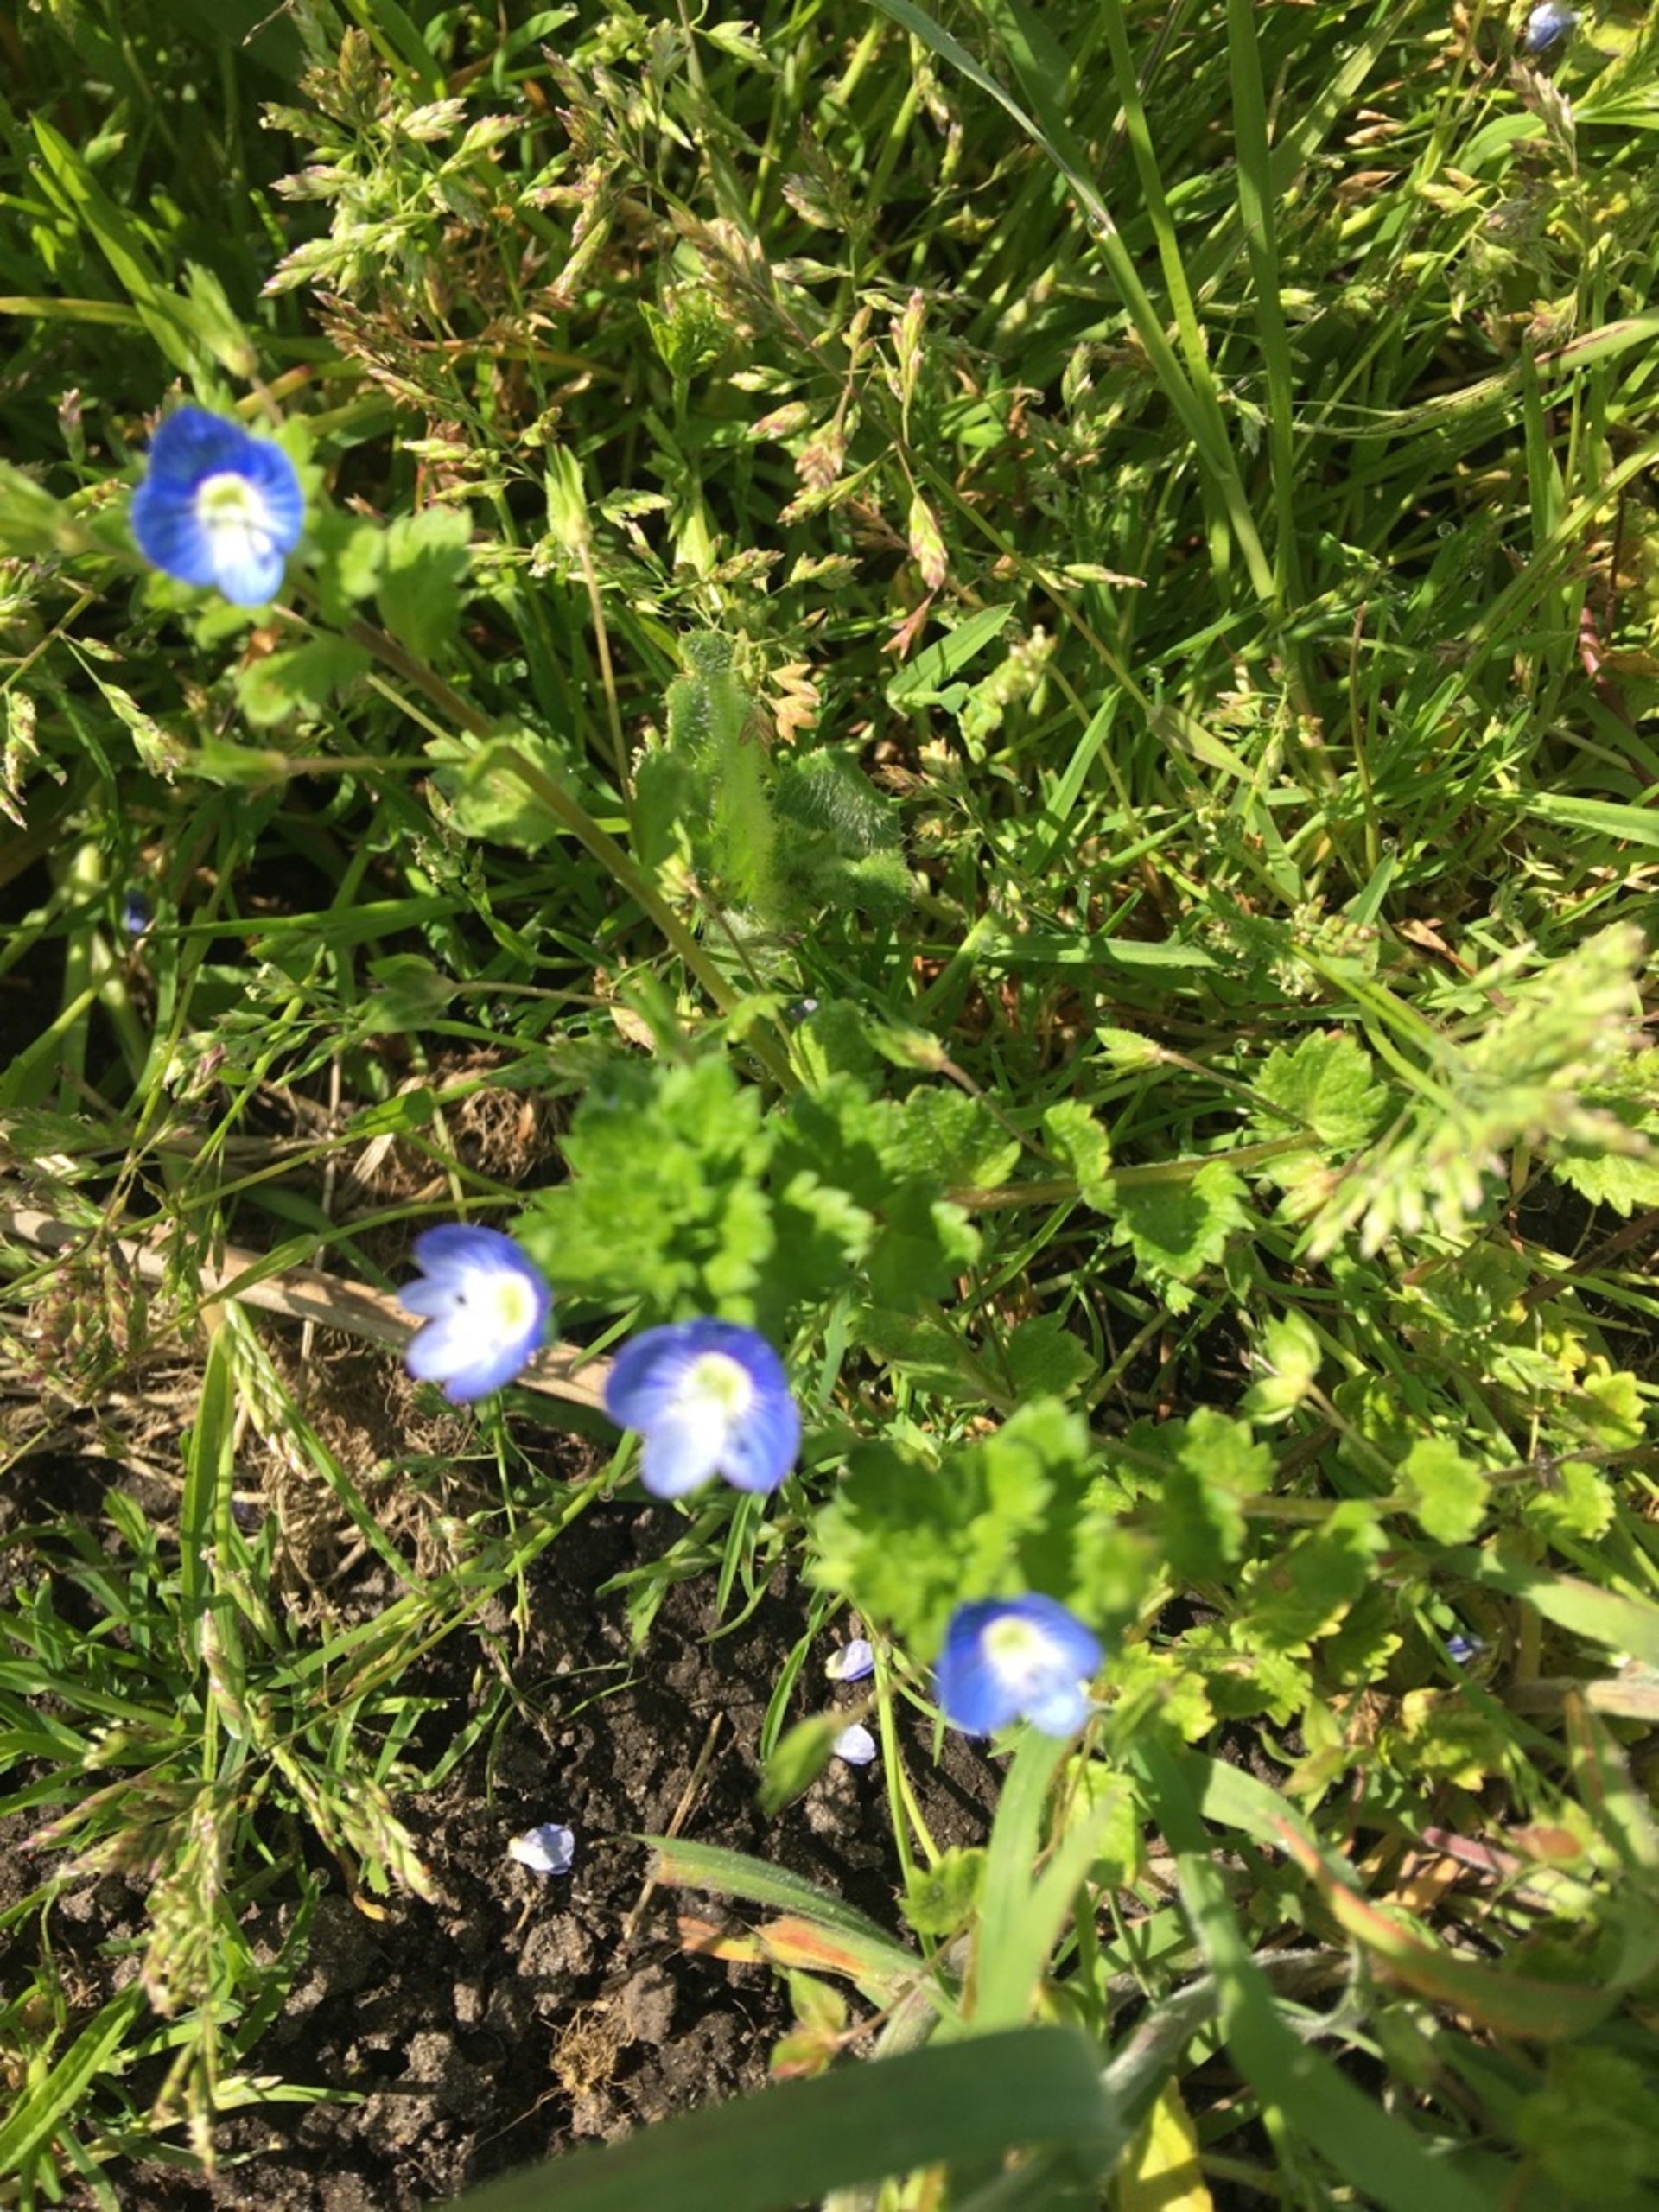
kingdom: Plantae
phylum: Tracheophyta
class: Magnoliopsida
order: Lamiales
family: Plantaginaceae
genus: Veronica
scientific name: Veronica persica
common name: Storkronet ærenpris
